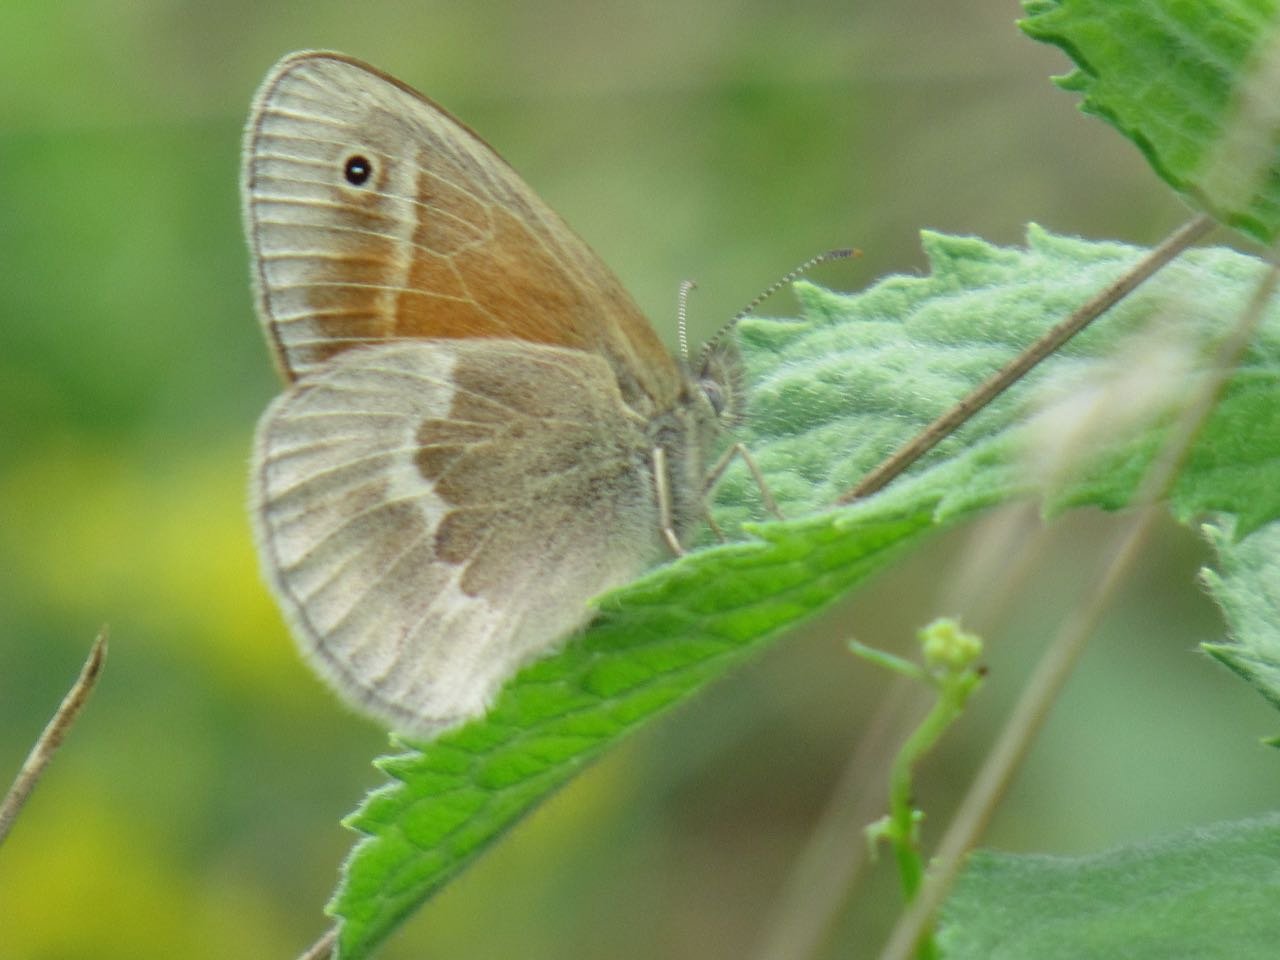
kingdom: Animalia
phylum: Arthropoda
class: Insecta
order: Lepidoptera
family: Nymphalidae
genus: Coenonympha
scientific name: Coenonympha tullia
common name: Large Heath
